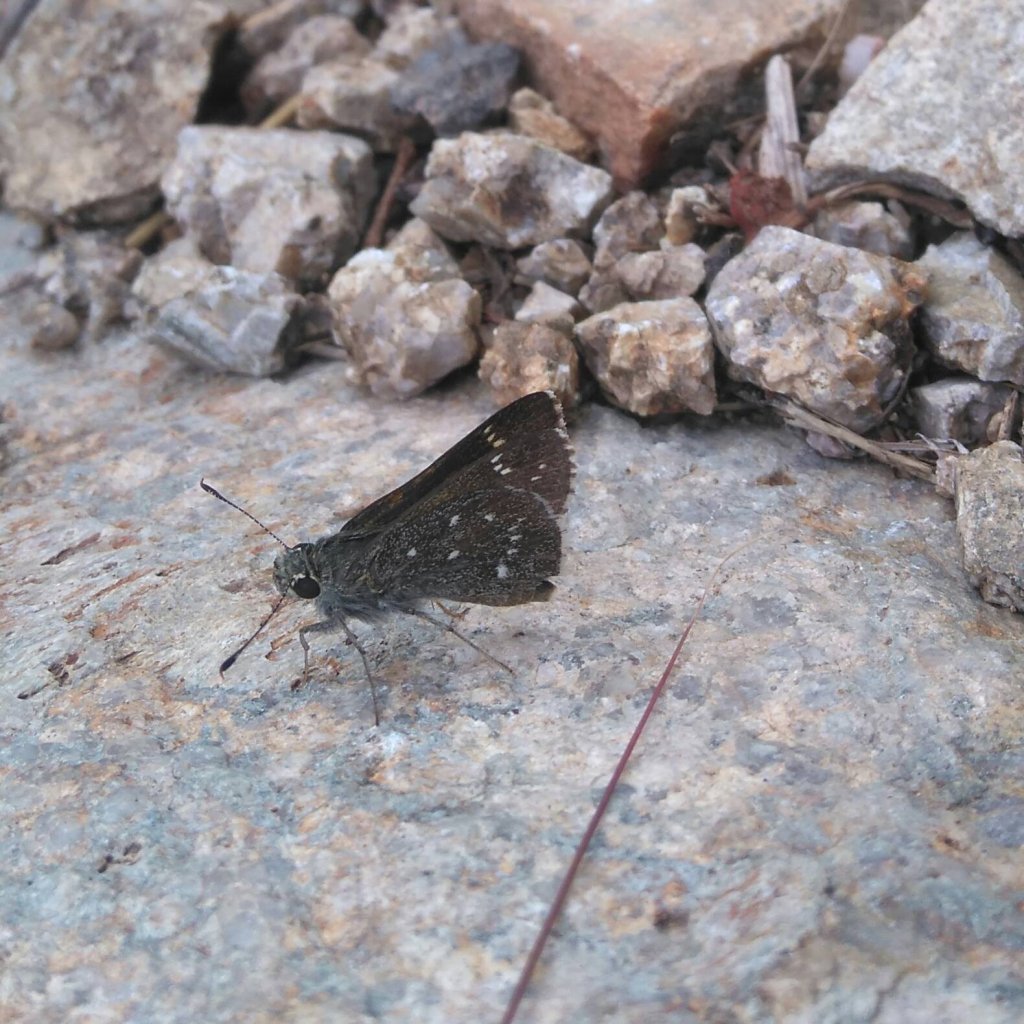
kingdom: Animalia
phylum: Arthropoda
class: Insecta
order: Lepidoptera
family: Hesperiidae
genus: Mastor
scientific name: Mastor exoteria
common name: Large Roadside-Skipper
